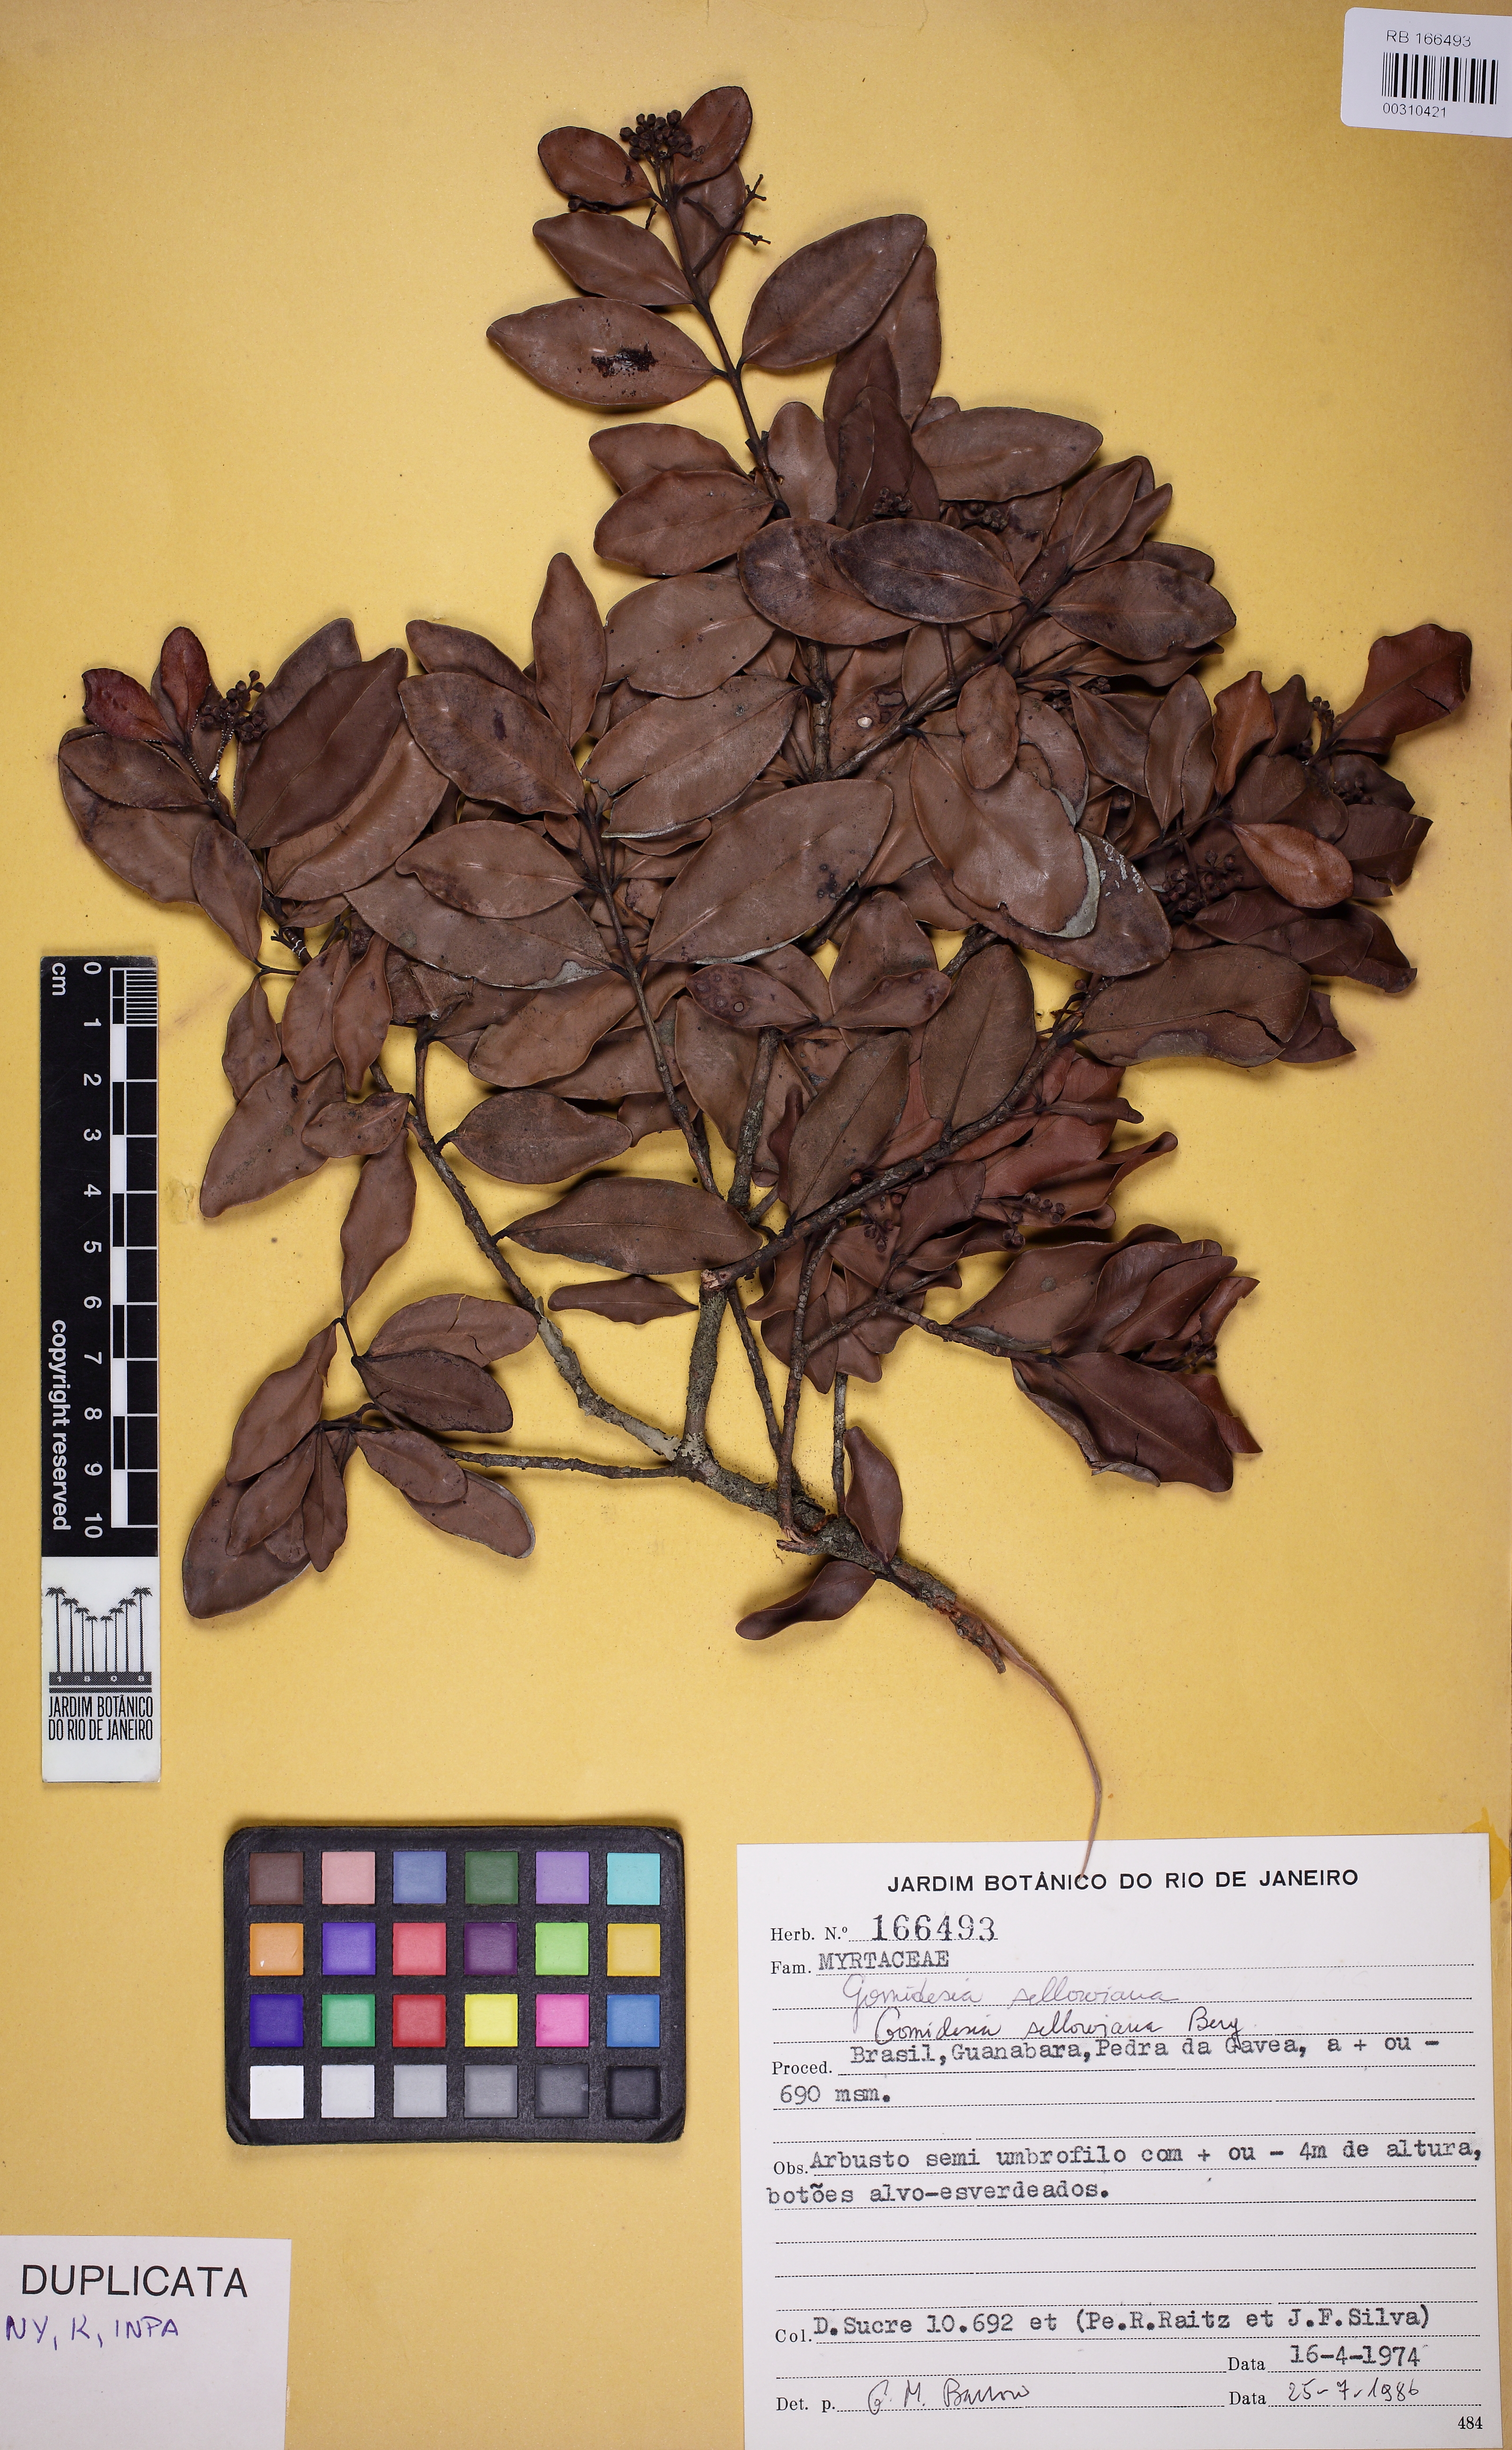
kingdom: Plantae
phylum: Tracheophyta
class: Magnoliopsida
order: Myrtales
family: Myrtaceae
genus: Myrcia
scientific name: Myrcia hartwegiana
